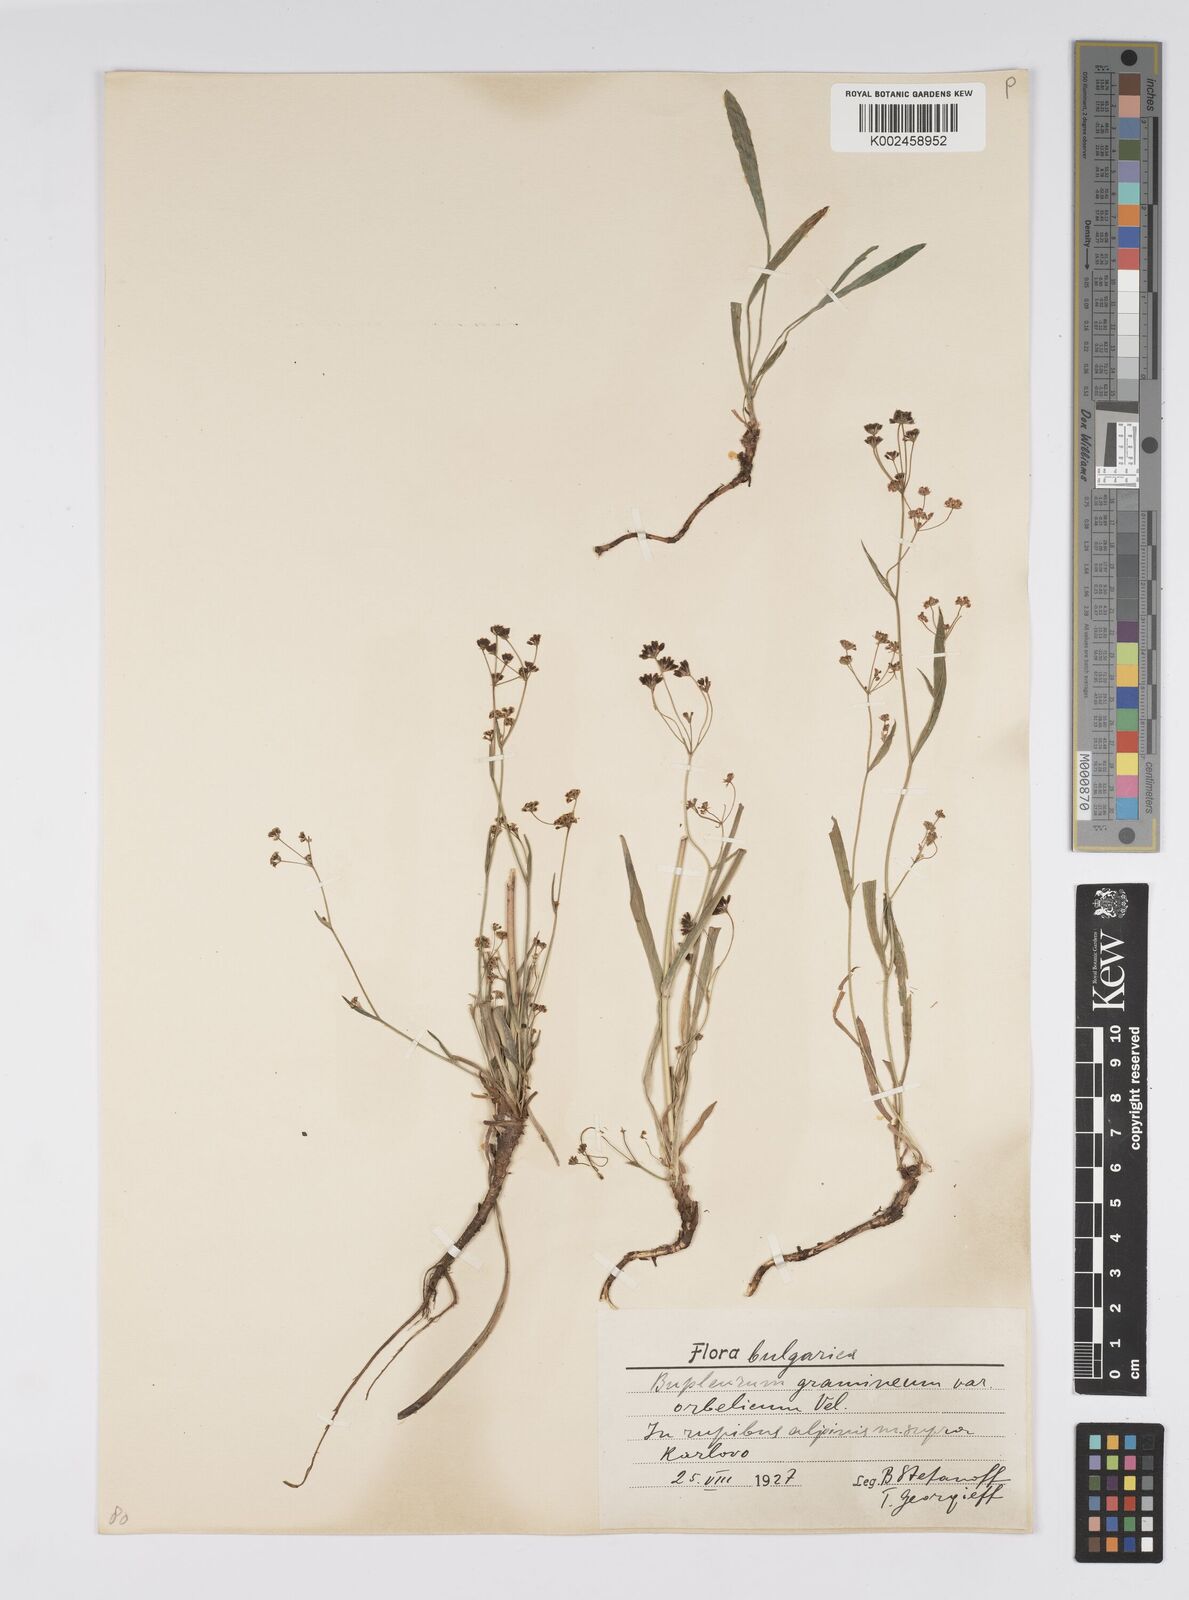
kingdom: Plantae
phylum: Tracheophyta
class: Magnoliopsida
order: Apiales
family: Apiaceae
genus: Bupleurum
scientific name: Bupleurum falcatum
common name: Sickle-leaved hare's-ear
